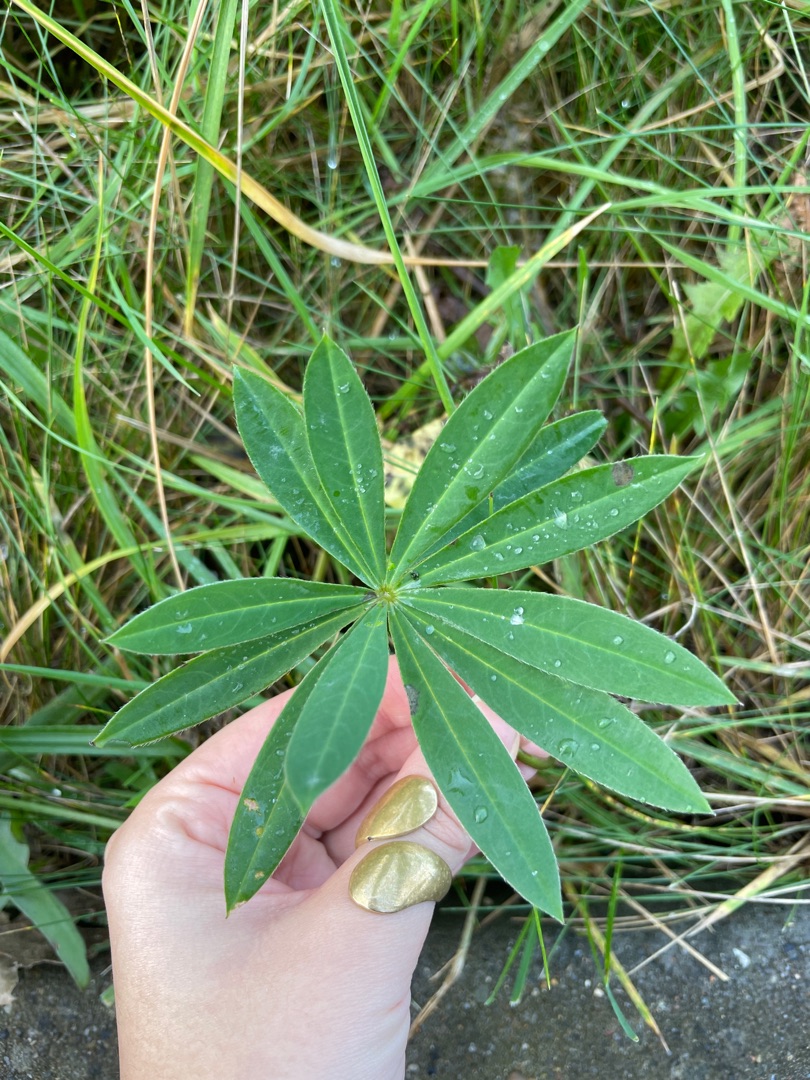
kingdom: Plantae
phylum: Tracheophyta
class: Magnoliopsida
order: Fabales
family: Fabaceae
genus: Lupinus
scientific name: Lupinus polyphyllus
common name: Mangebladet lupin
